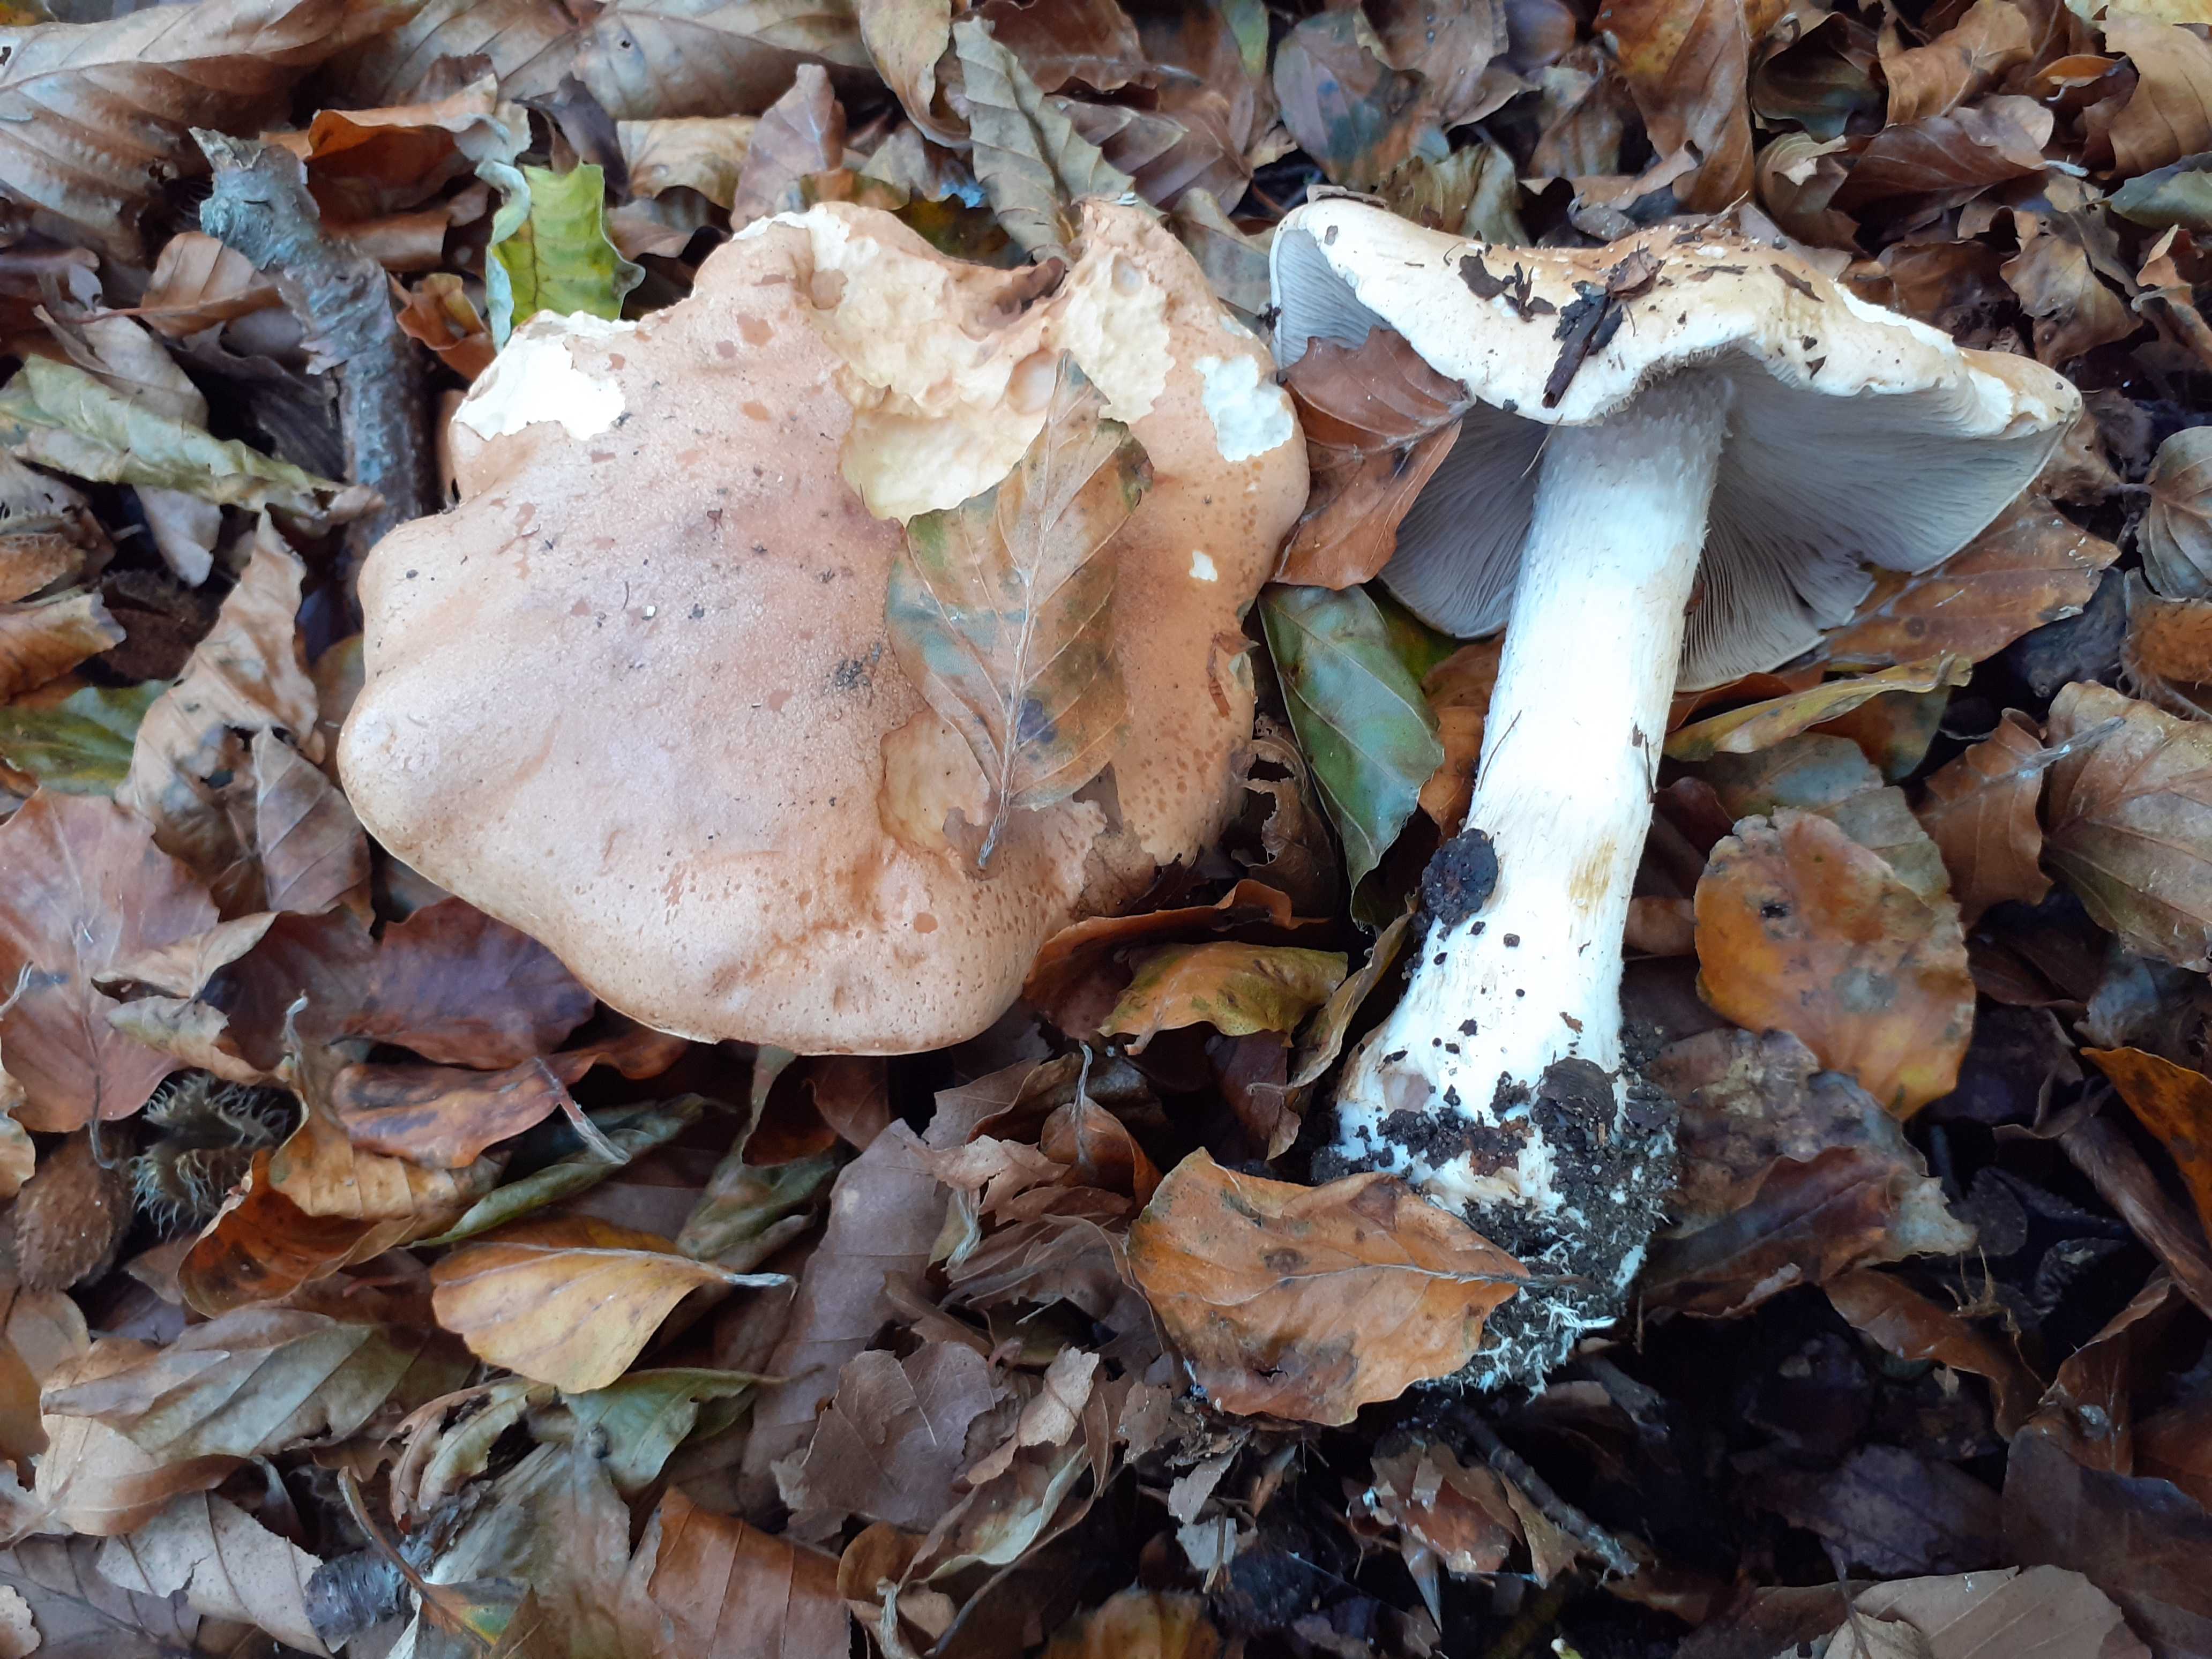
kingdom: Fungi
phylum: Basidiomycota
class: Agaricomycetes
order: Agaricales
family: Hymenogastraceae
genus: Hebeloma
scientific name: Hebeloma sinapizans
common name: ræddike-tåreblad
